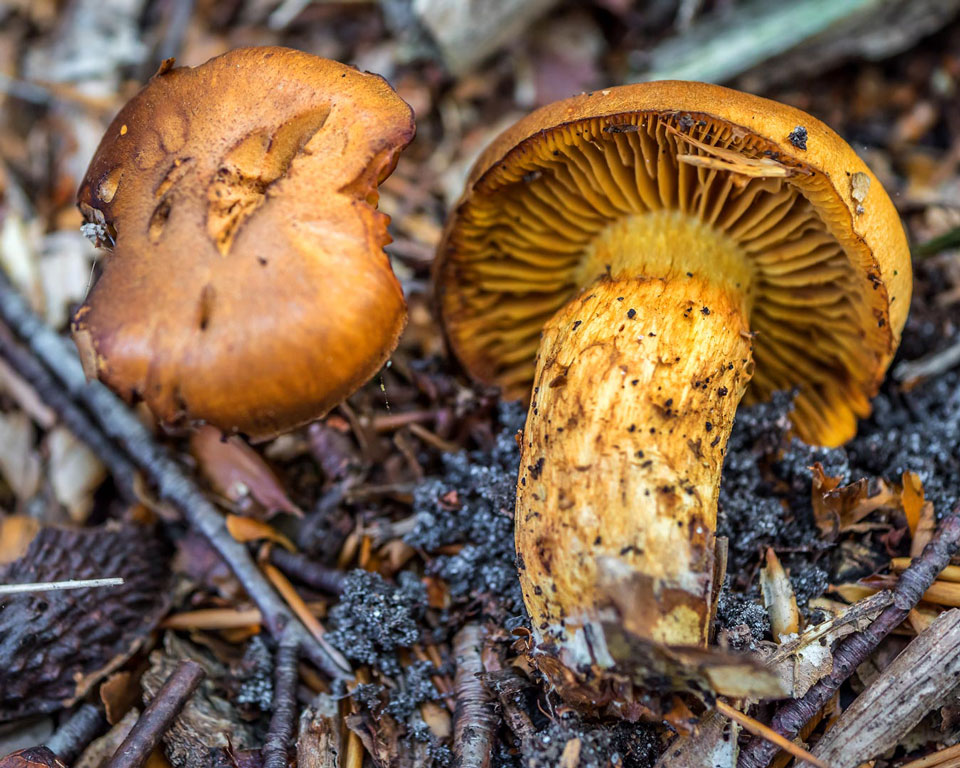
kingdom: Fungi
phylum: Basidiomycota
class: Agaricomycetes
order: Agaricales
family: Cortinariaceae
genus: Aureonarius
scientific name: Aureonarius limonius
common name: orangegul slørhat
